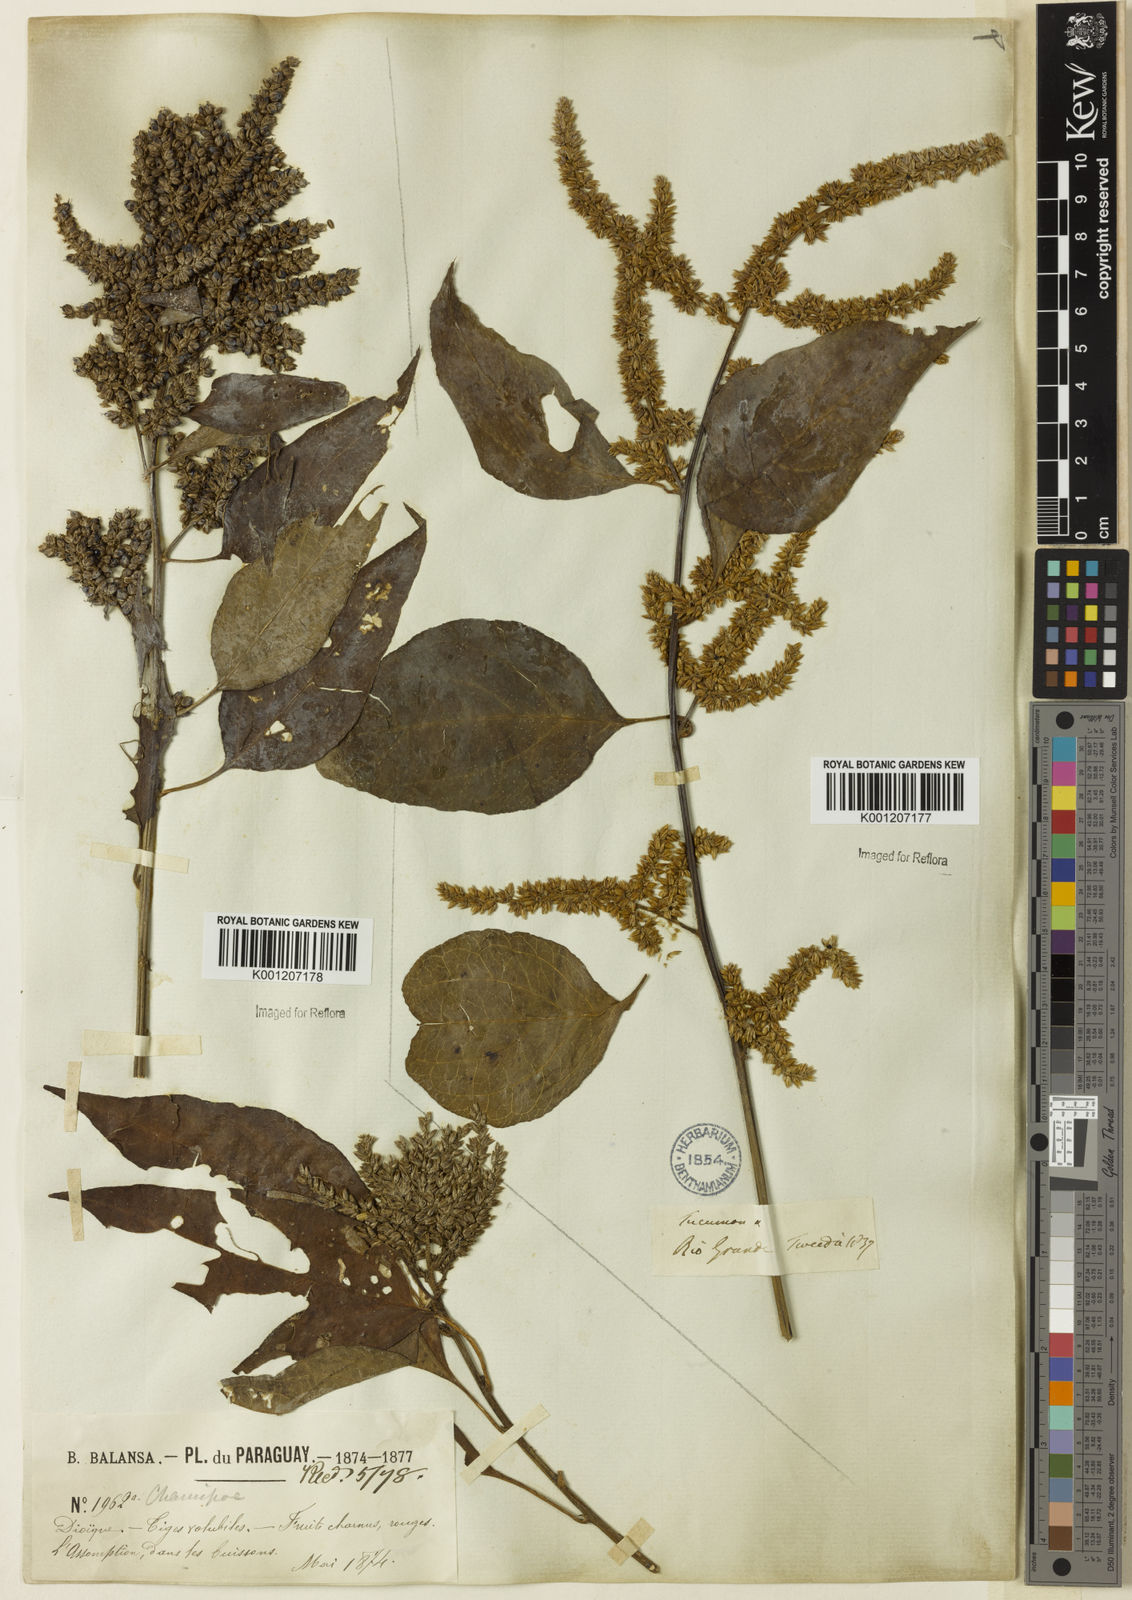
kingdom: Plantae
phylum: Tracheophyta
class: Magnoliopsida
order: Caryophyllales
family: Amaranthaceae
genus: Chamissoa
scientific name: Chamissoa altissima
